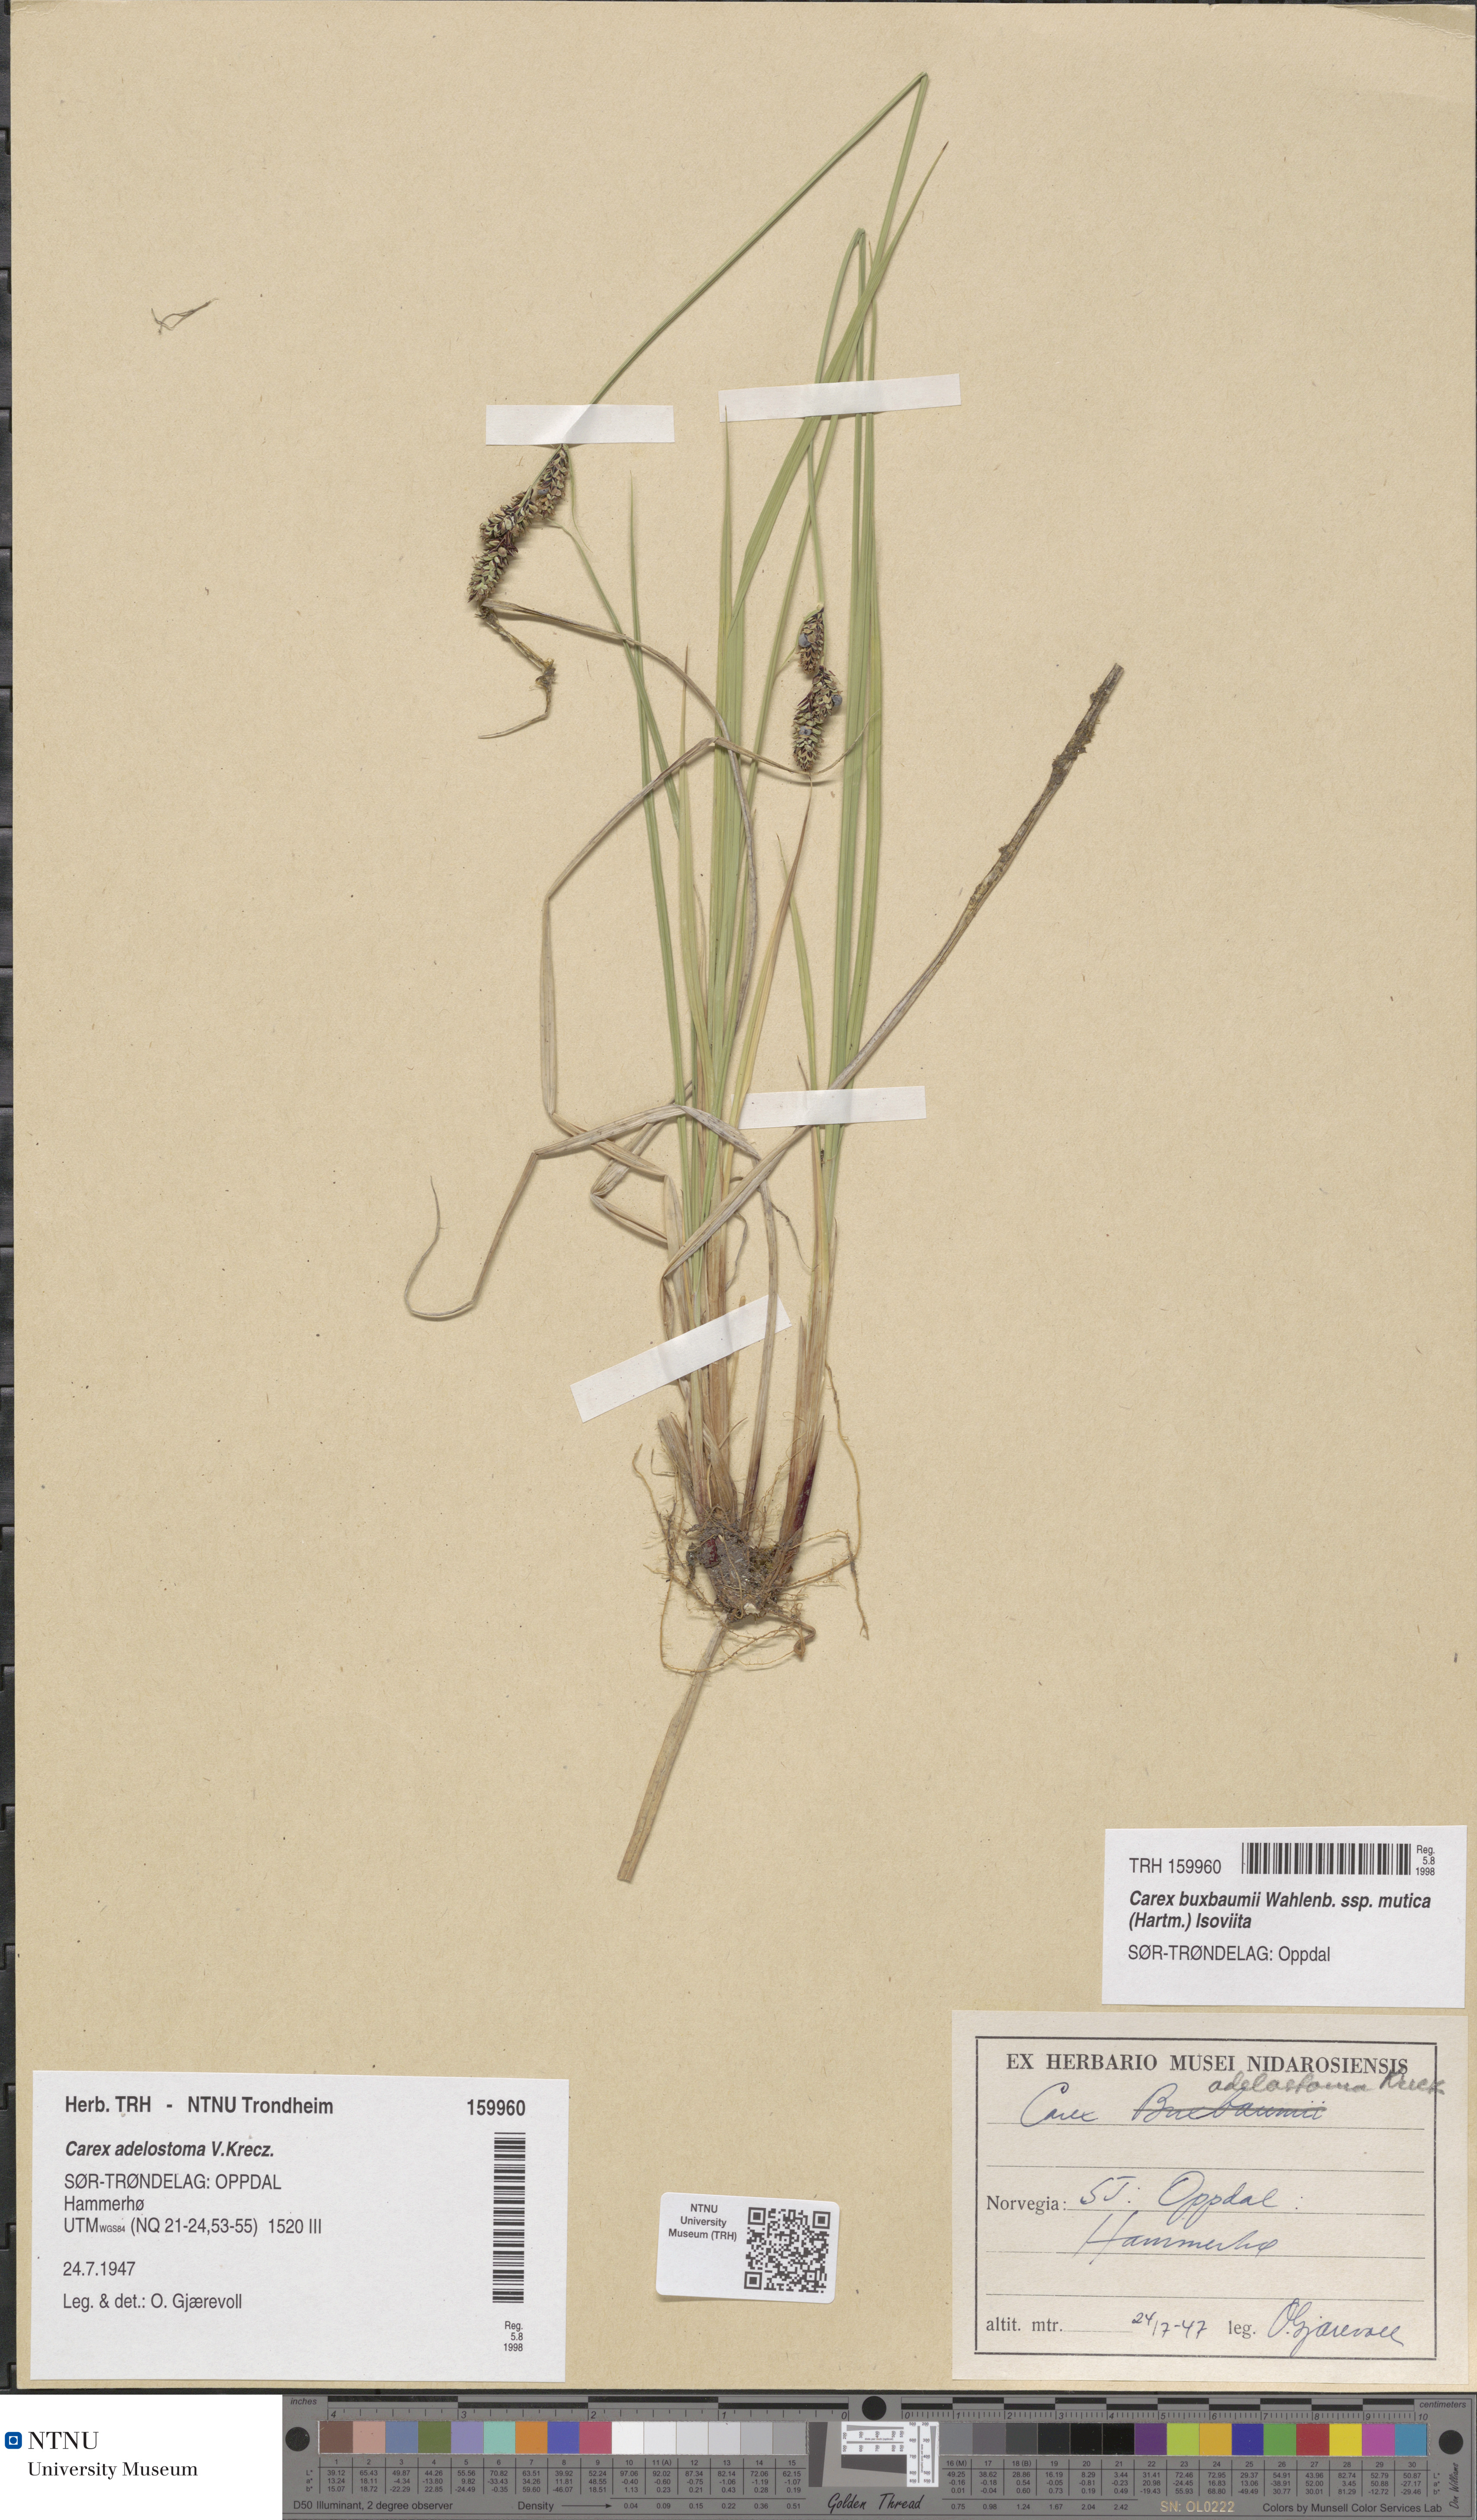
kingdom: Plantae
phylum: Tracheophyta
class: Liliopsida
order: Poales
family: Cyperaceae
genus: Carex
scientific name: Carex adelostoma
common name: Circumpolar sedge
